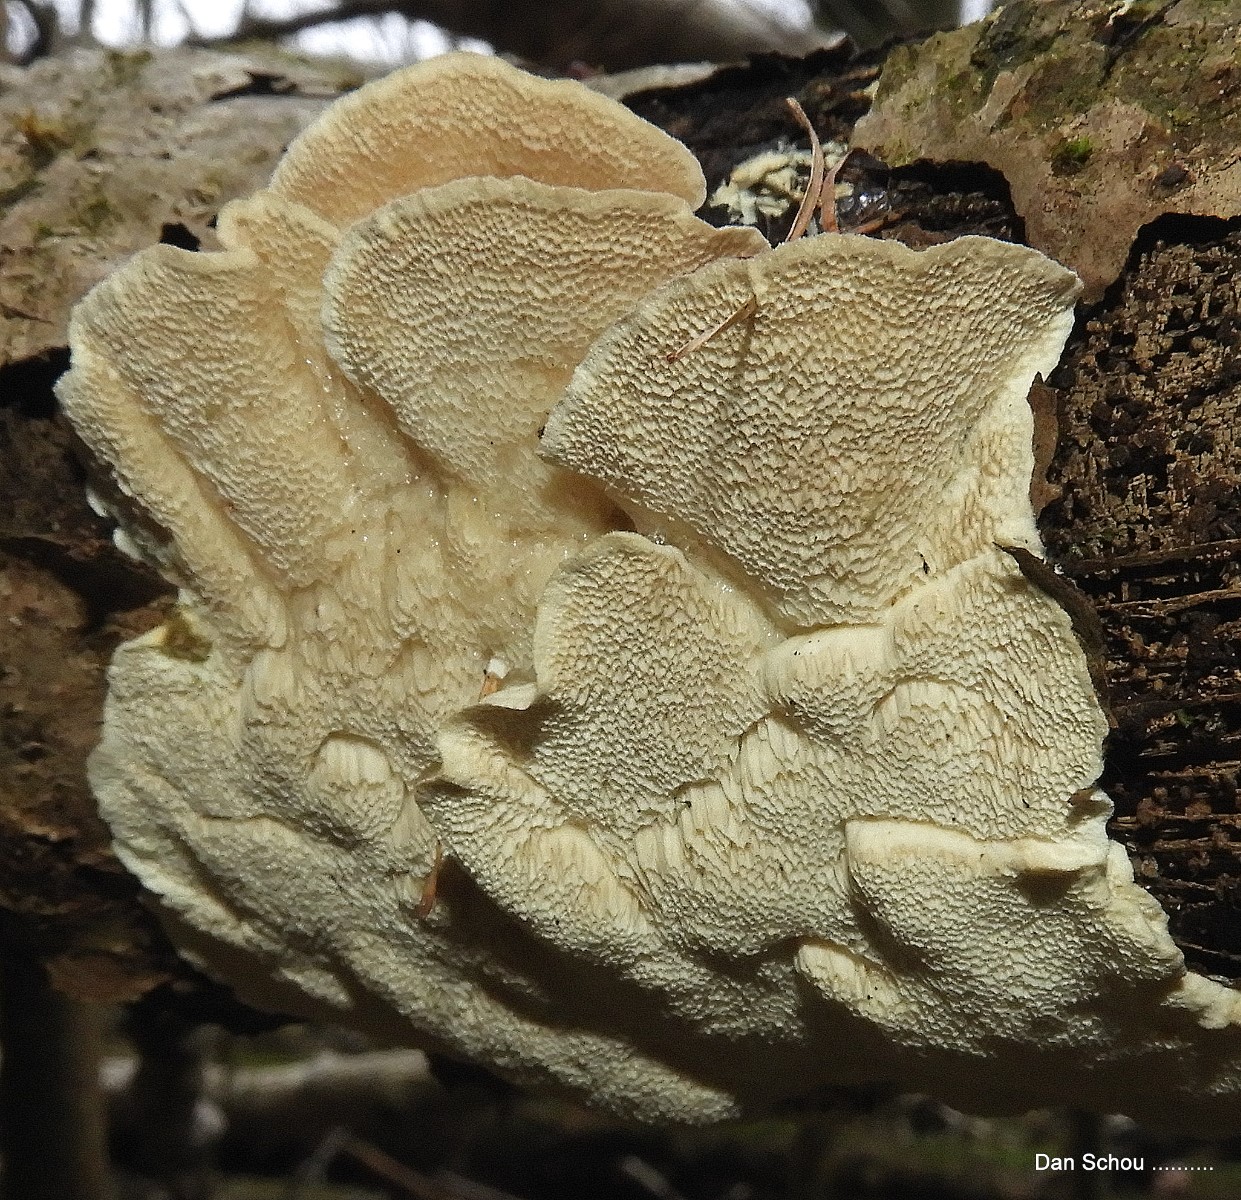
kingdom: Fungi
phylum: Basidiomycota
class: Agaricomycetes
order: Polyporales
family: Polyporaceae
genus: Trametes
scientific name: Trametes
